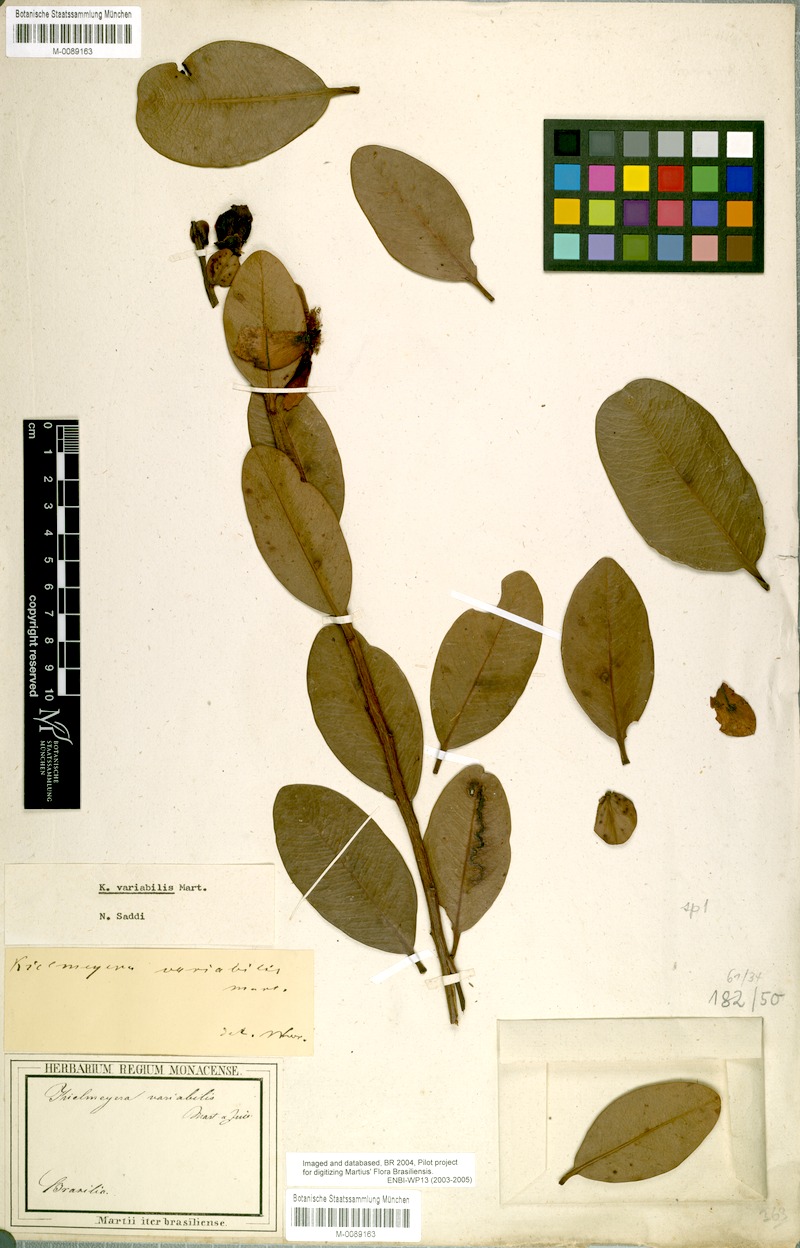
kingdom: Plantae
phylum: Tracheophyta
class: Magnoliopsida
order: Malpighiales
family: Calophyllaceae
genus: Kielmeyera
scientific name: Kielmeyera variabilis
